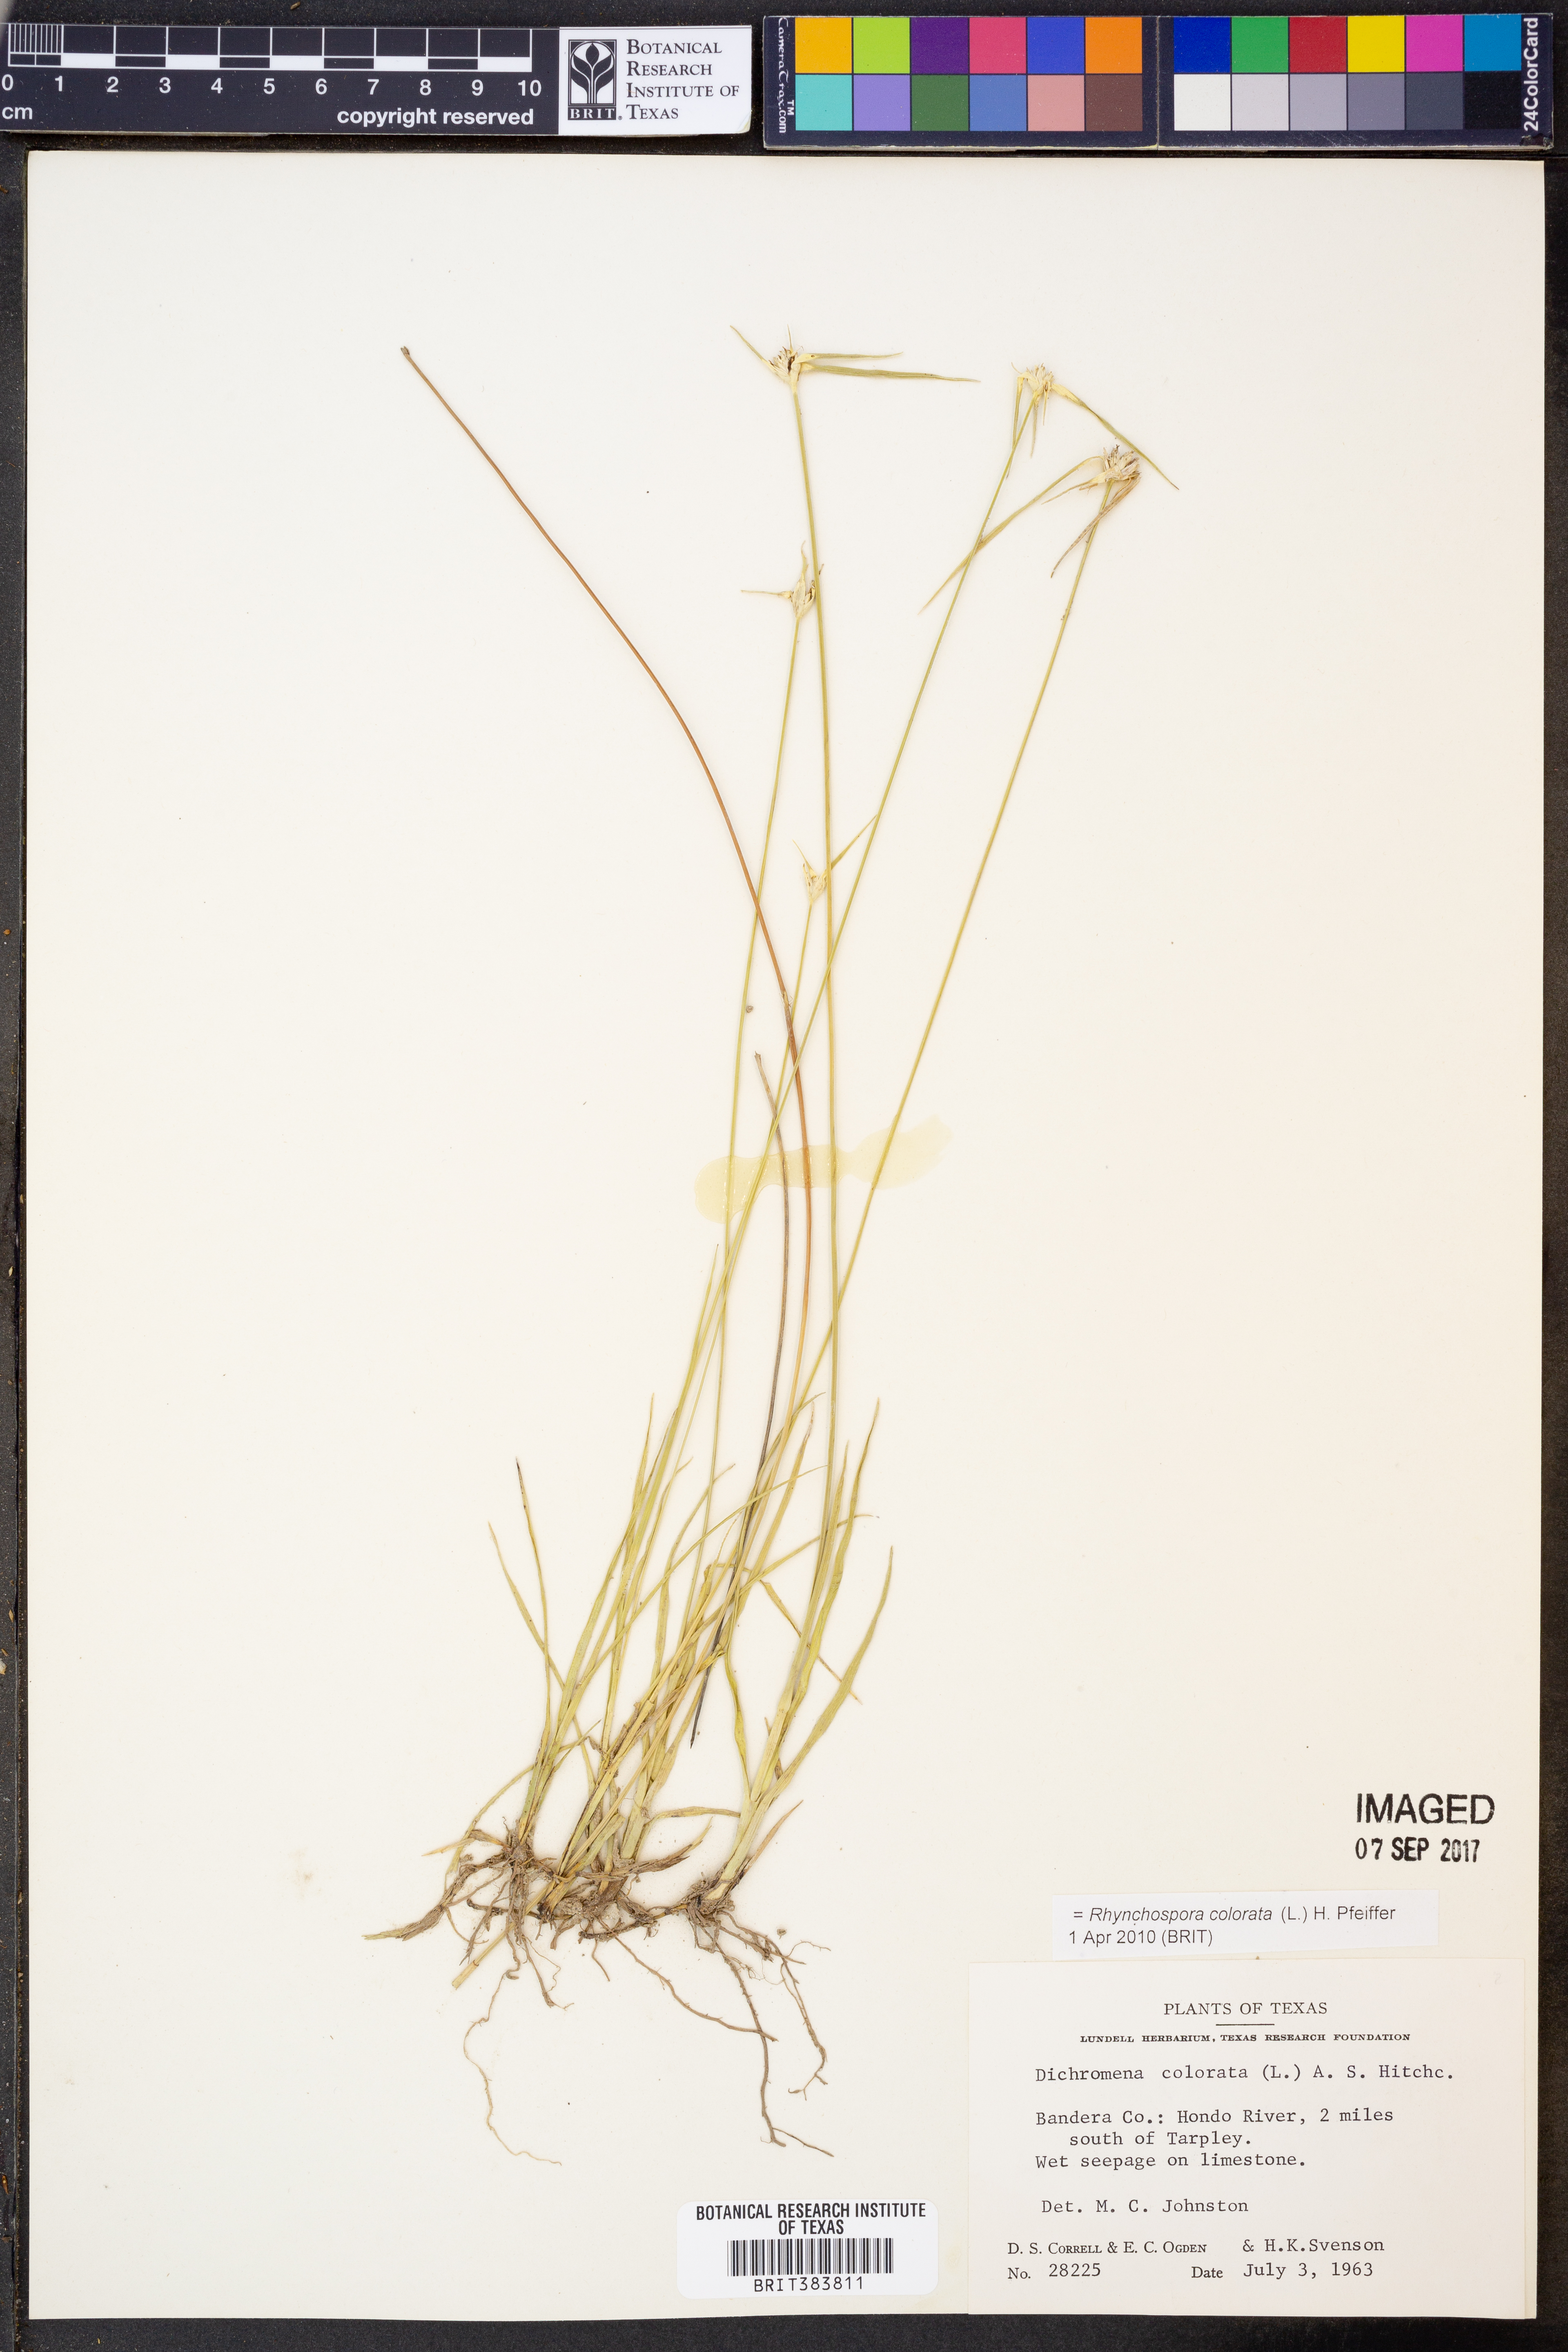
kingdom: Plantae
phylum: Tracheophyta
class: Liliopsida
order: Poales
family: Cyperaceae
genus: Rhynchospora
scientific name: Rhynchospora colorata
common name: Star sedge
